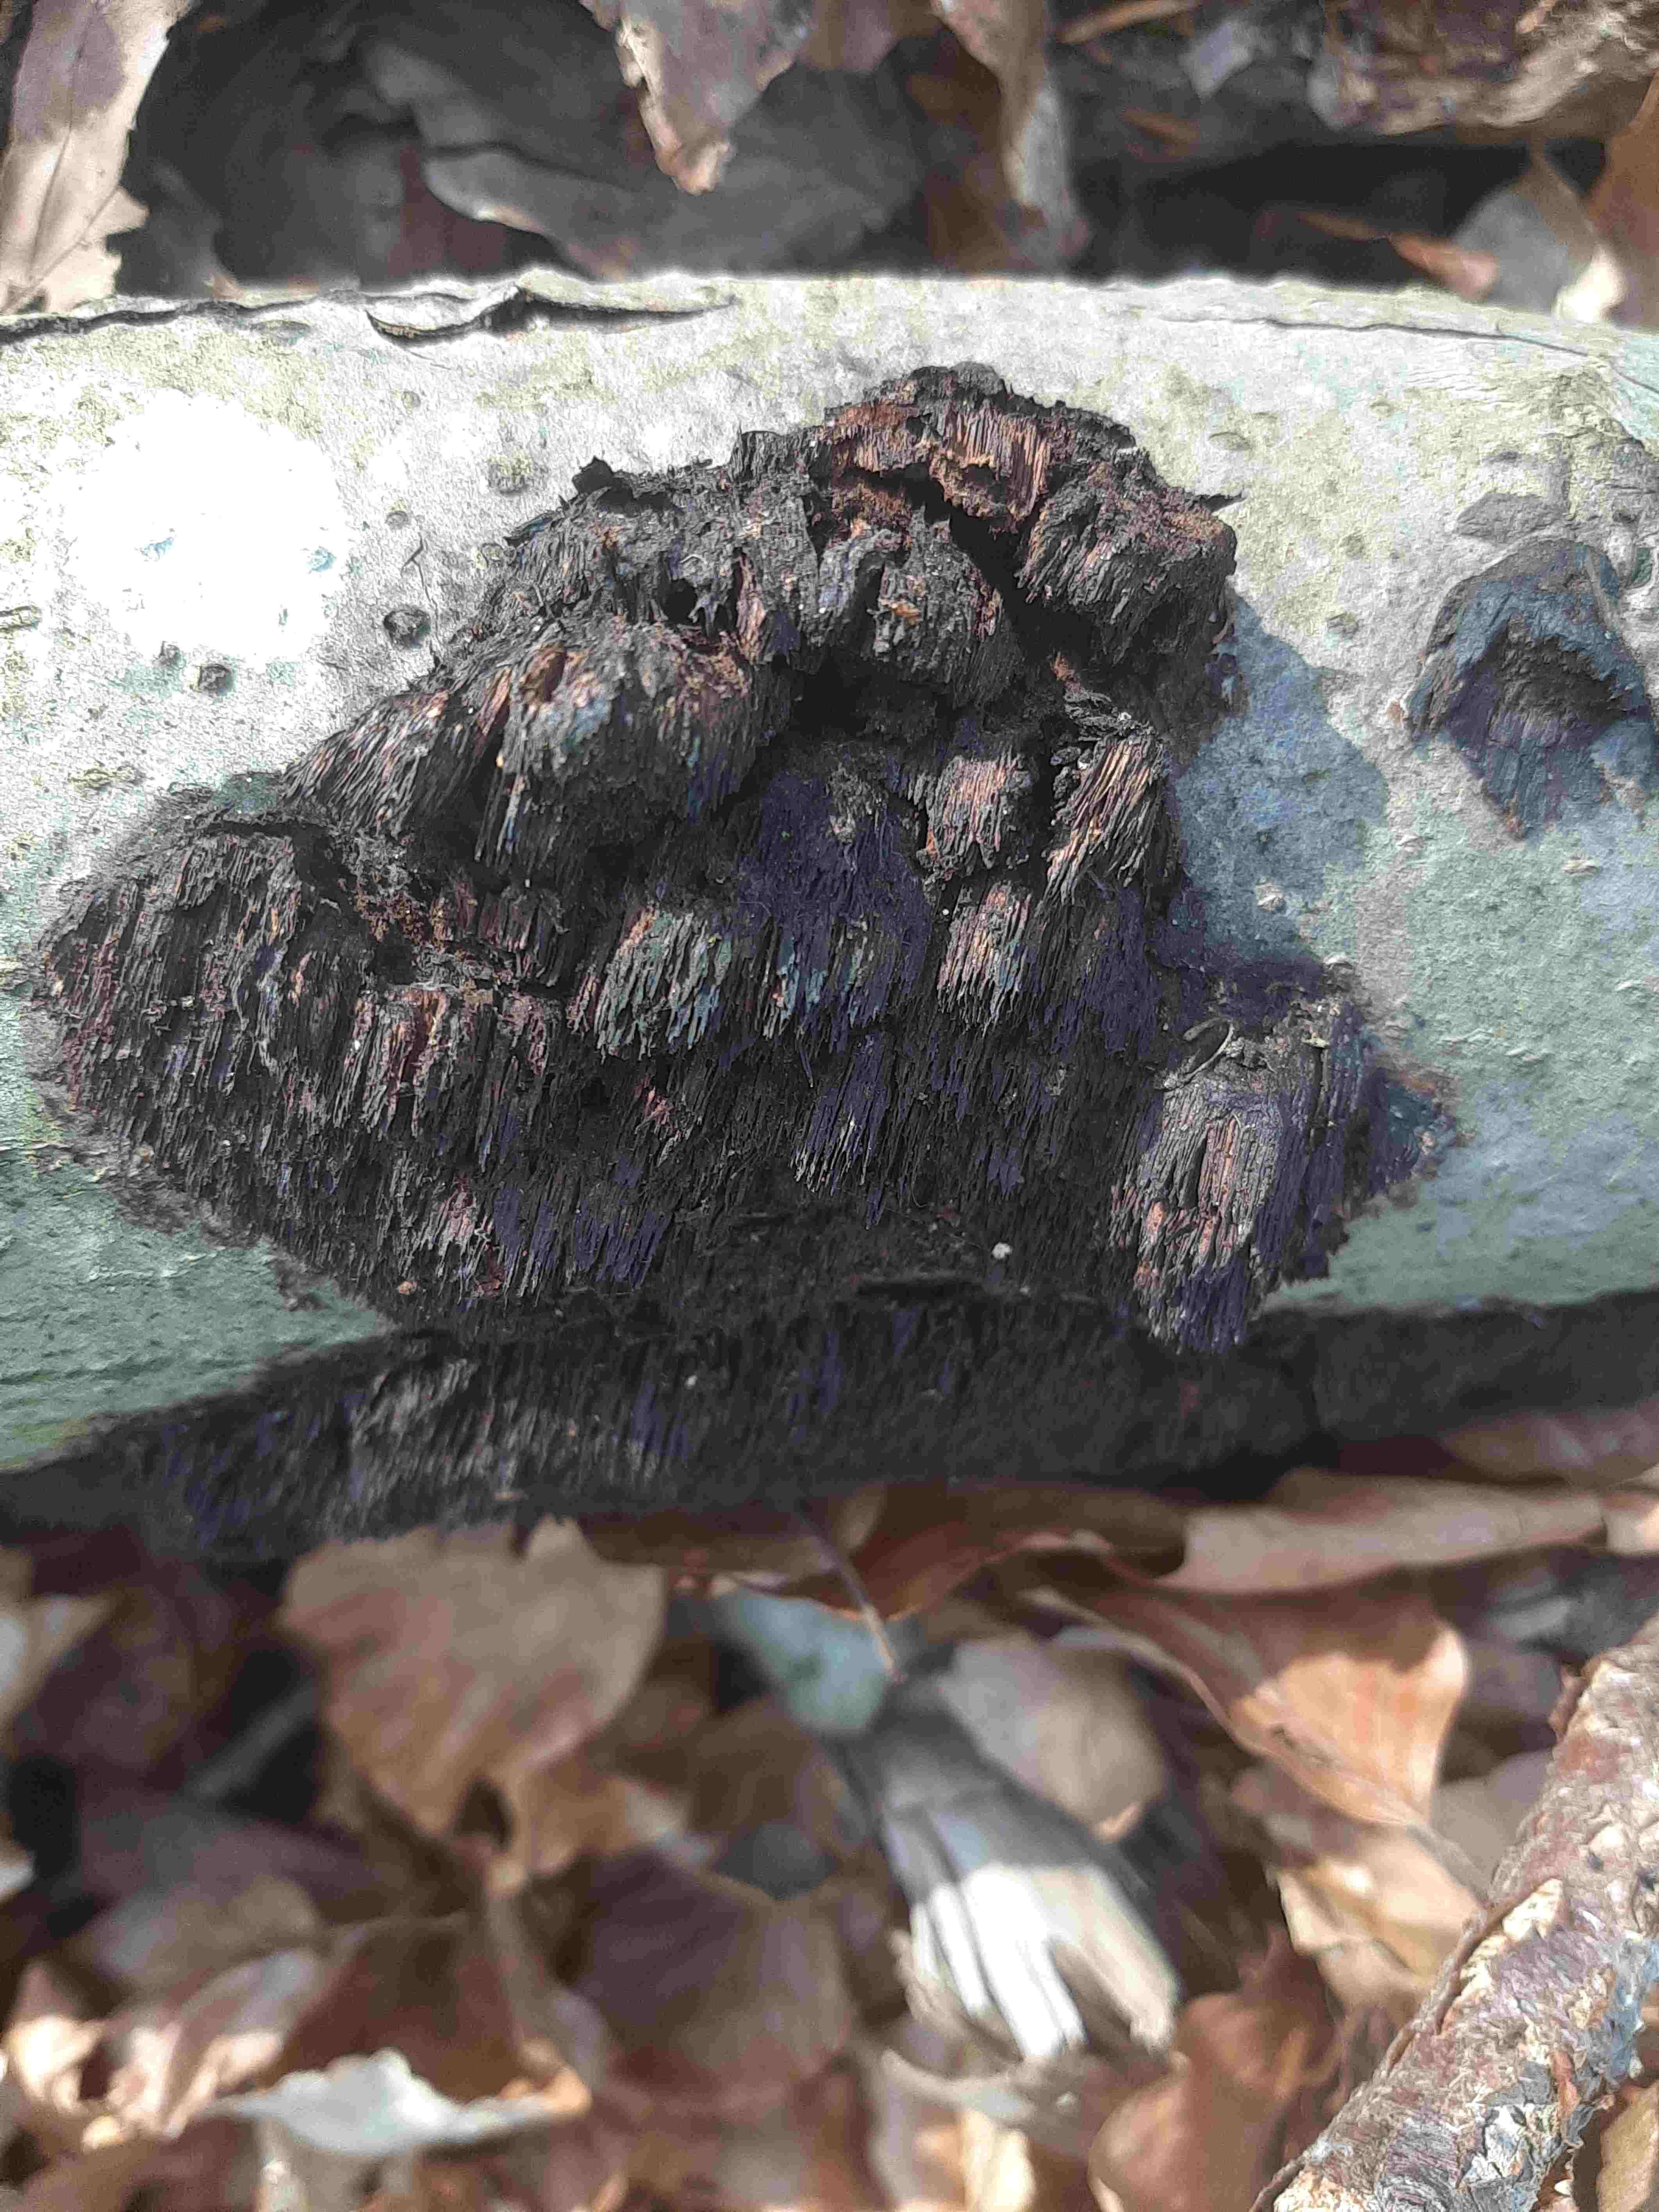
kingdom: Fungi
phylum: Basidiomycota
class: Agaricomycetes
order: Hymenochaetales
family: Hymenochaetaceae
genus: Mensularia
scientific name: Mensularia nodulosa
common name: bøge-spejlporesvamp
